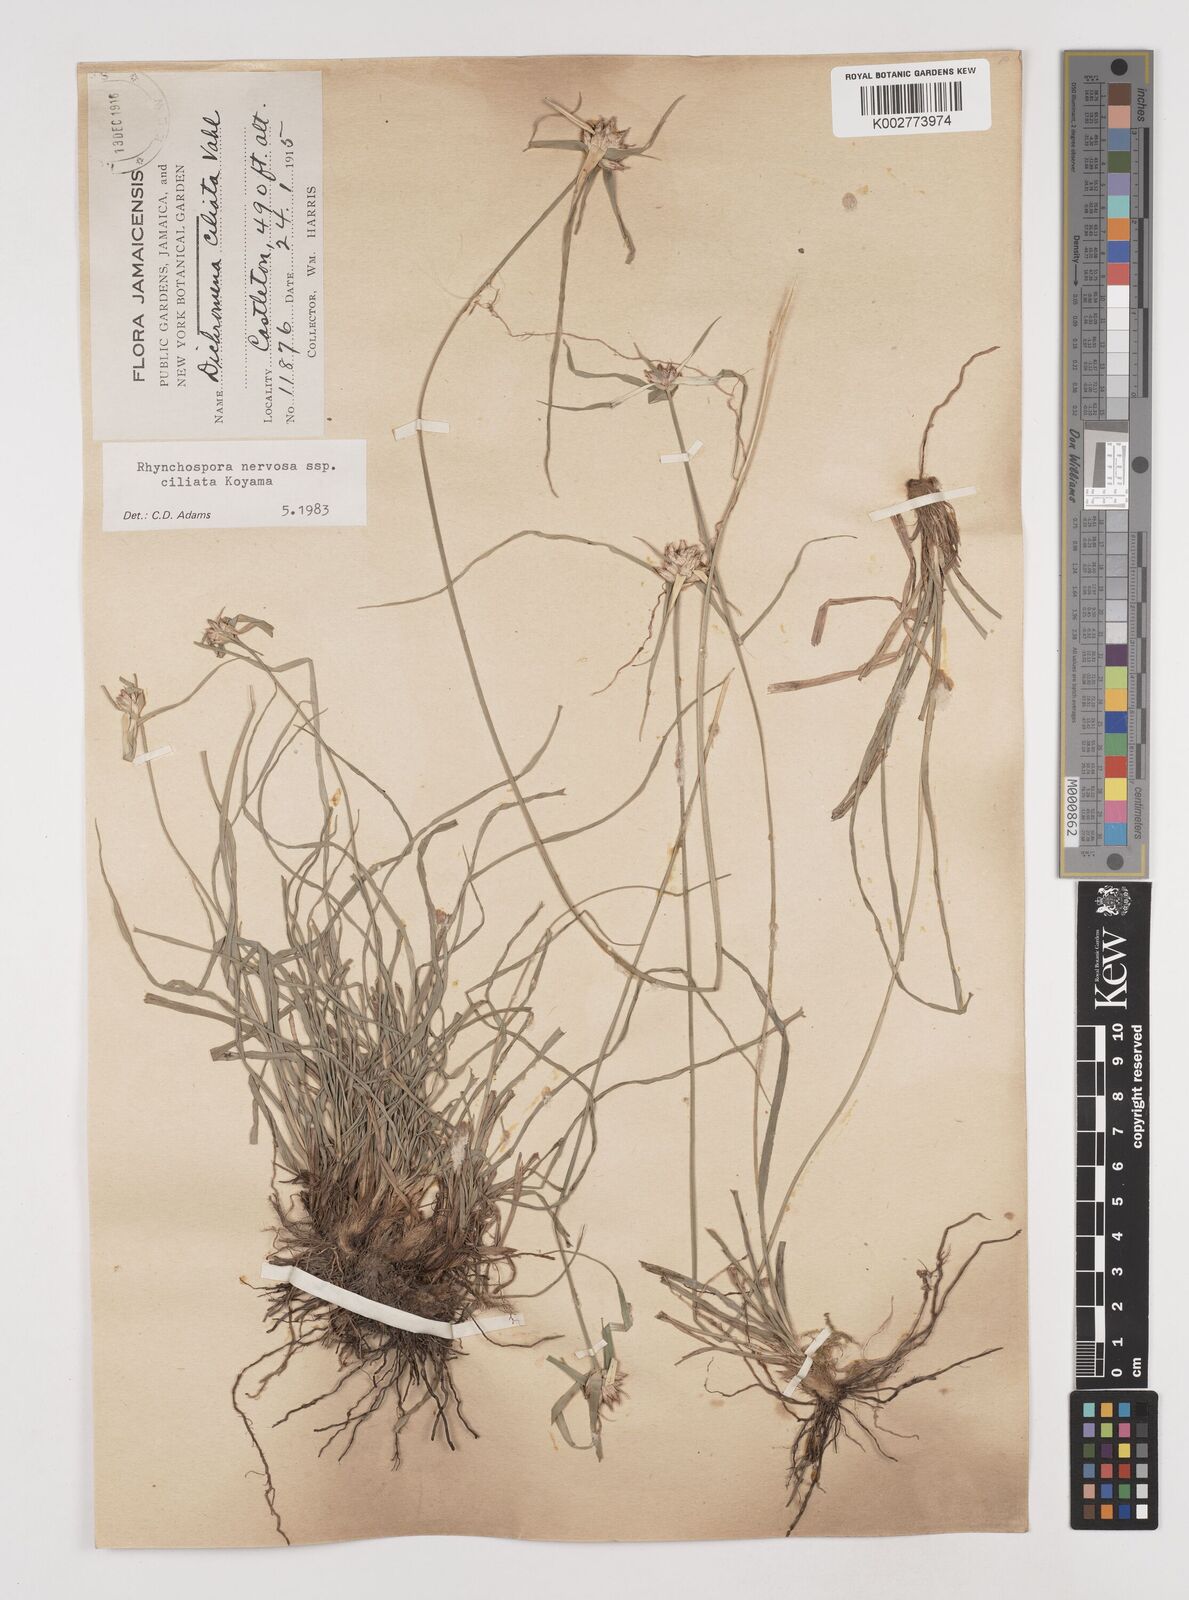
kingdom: Plantae
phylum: Tracheophyta
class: Liliopsida
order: Poales
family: Cyperaceae
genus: Rhynchospora
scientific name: Rhynchospora pura
